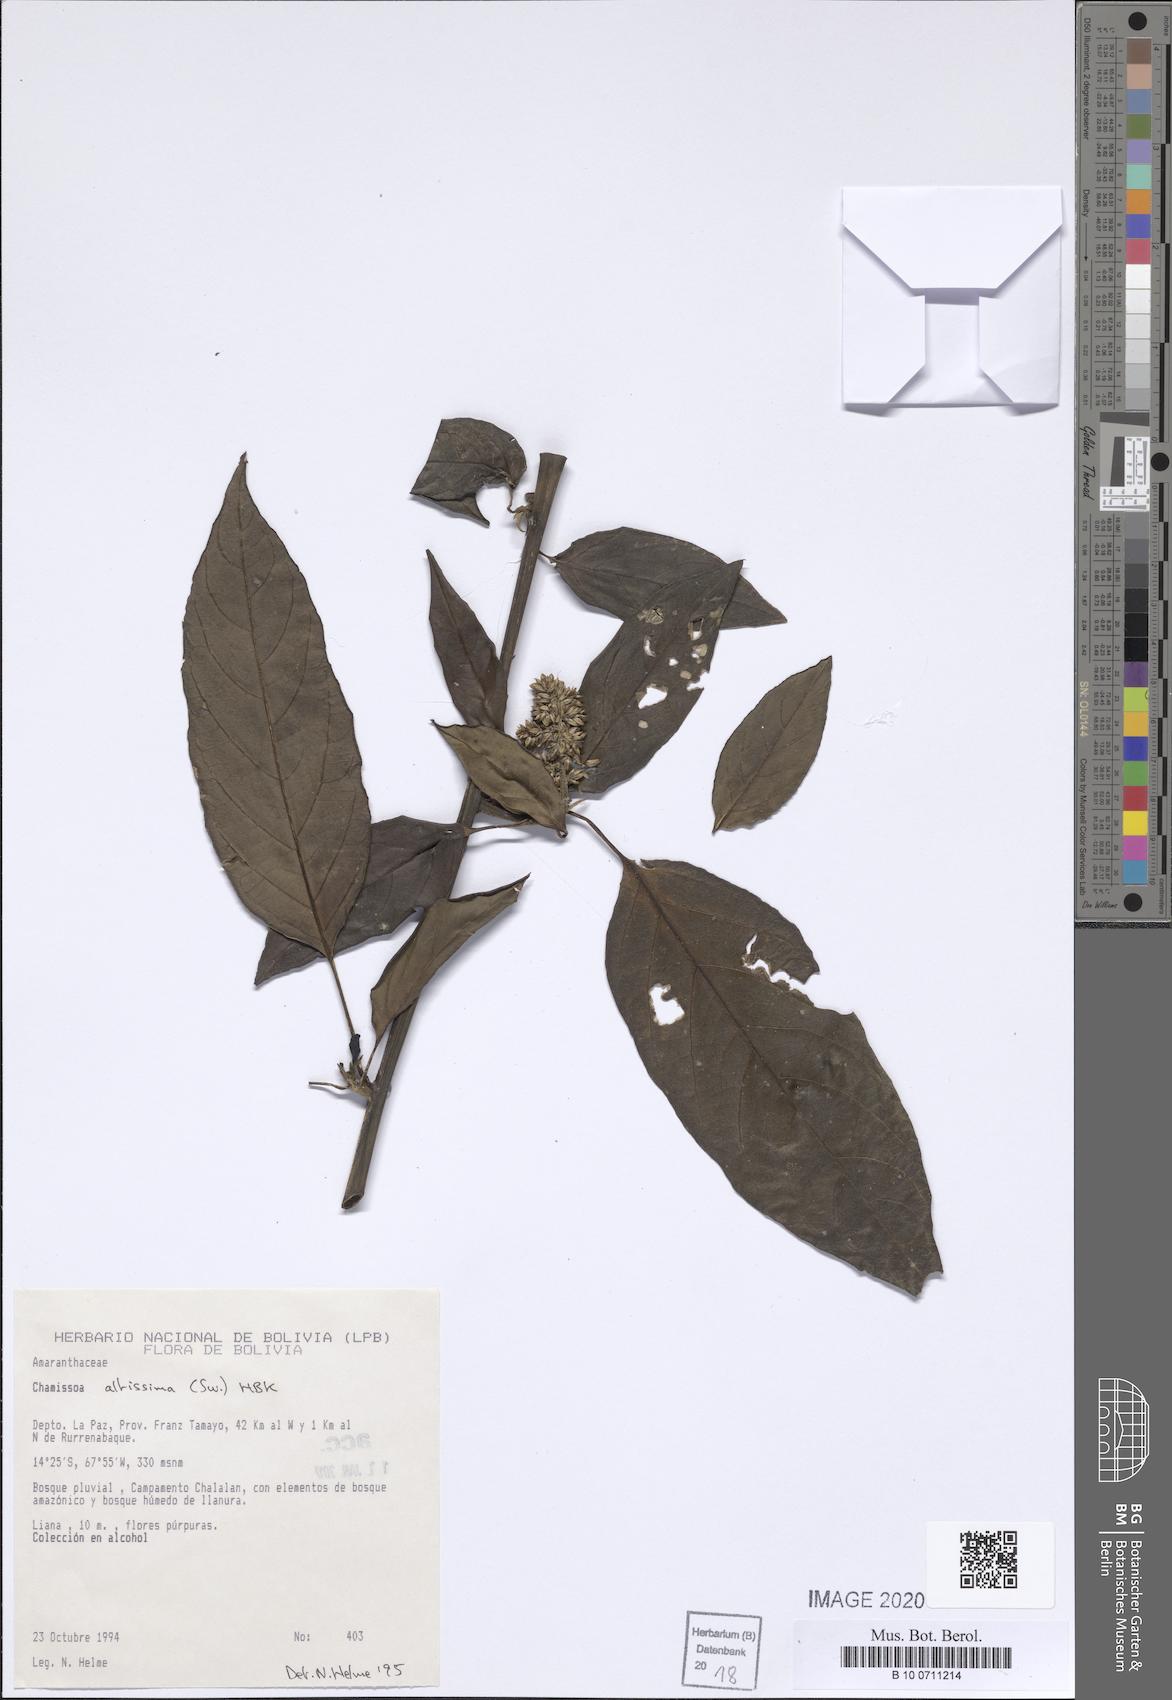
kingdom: Plantae
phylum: Tracheophyta
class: Magnoliopsida
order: Caryophyllales
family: Amaranthaceae
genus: Chamissoa
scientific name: Chamissoa altissima
